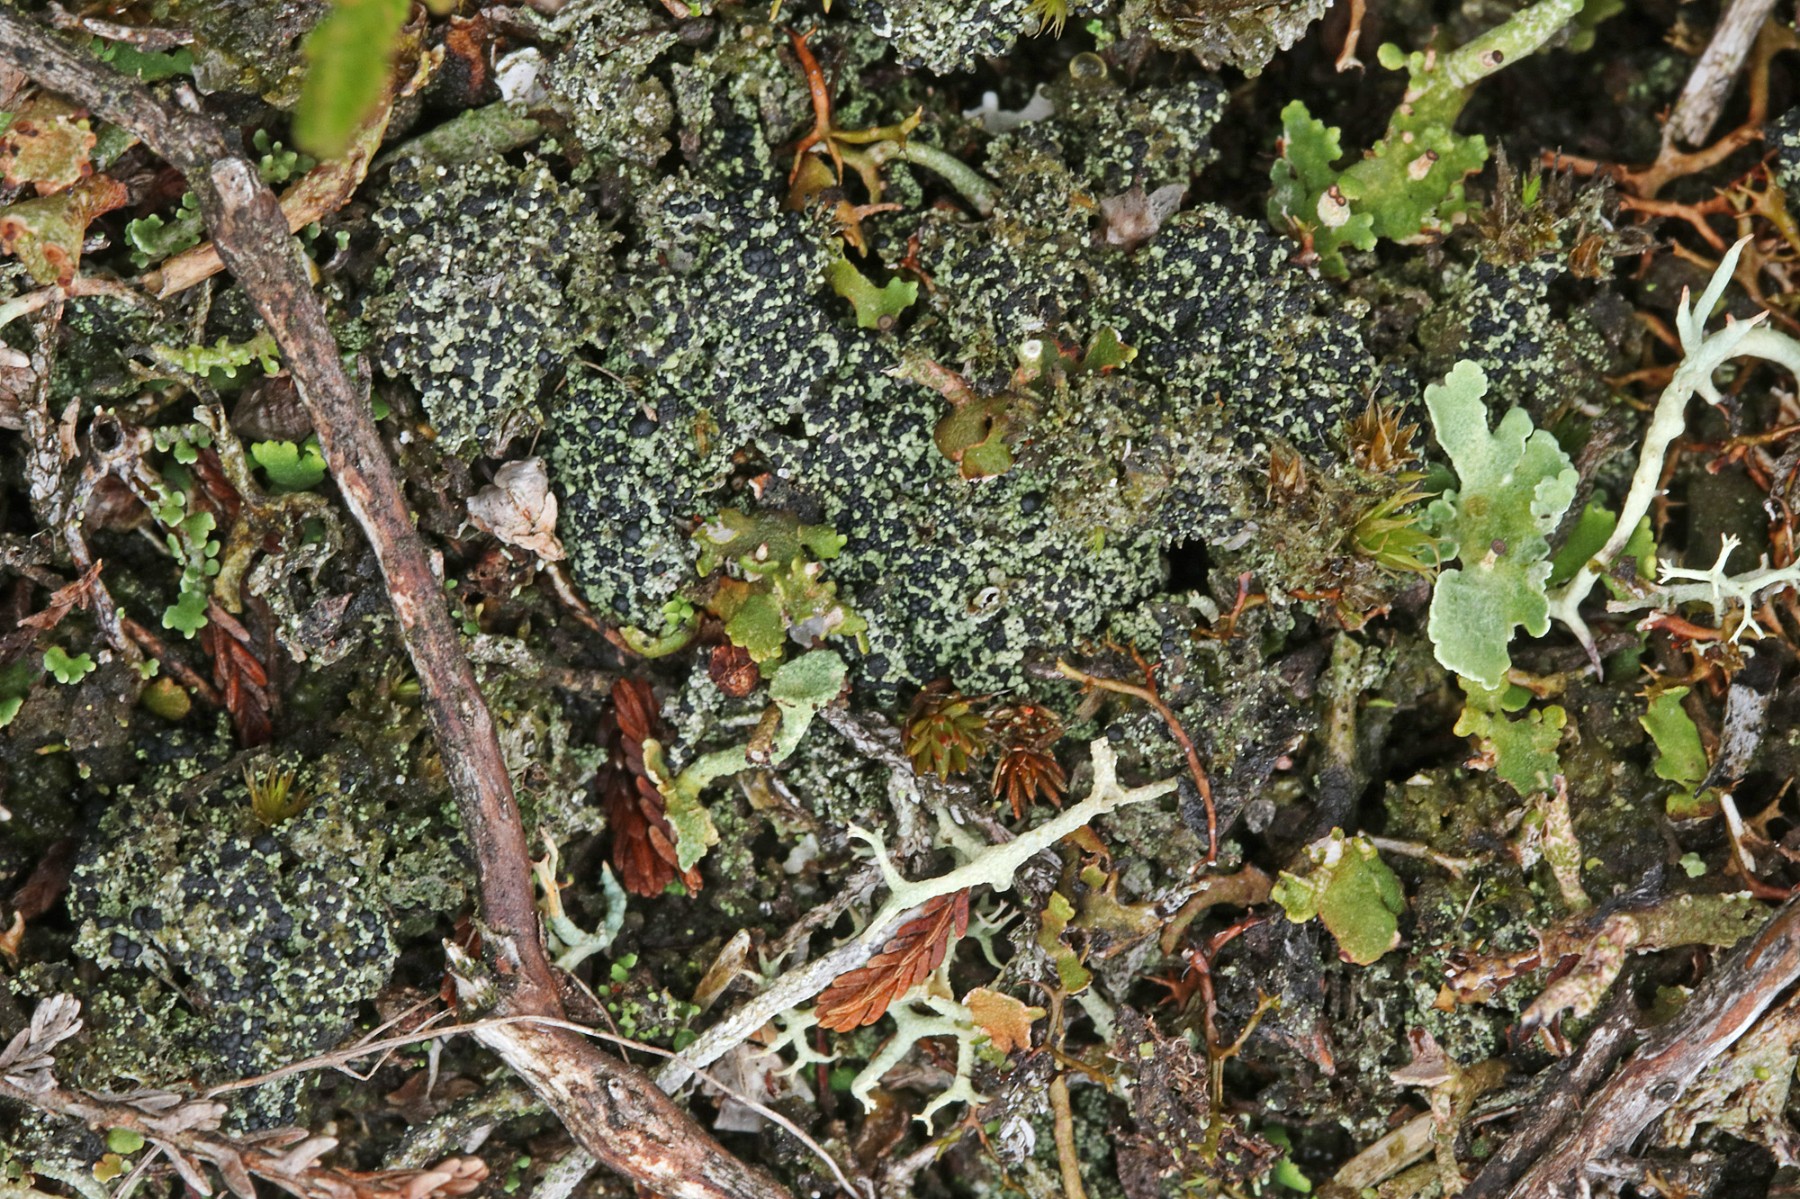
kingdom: Fungi
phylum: Ascomycota
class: Lecanoromycetes
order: Lecanorales
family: Byssolomataceae
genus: Micarea
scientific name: Micarea lignaria
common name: tørve-knaplav
